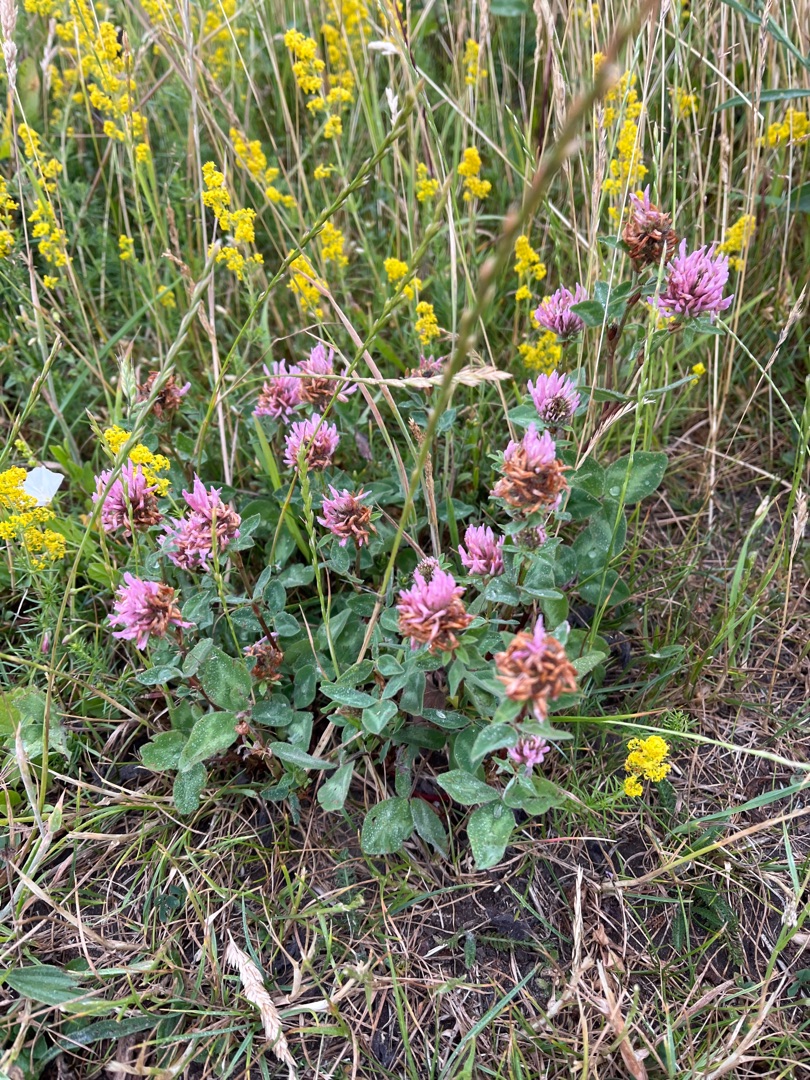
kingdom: Plantae
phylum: Tracheophyta
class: Magnoliopsida
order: Fabales
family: Fabaceae
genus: Trifolium
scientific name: Trifolium pratense
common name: Rød-kløver
